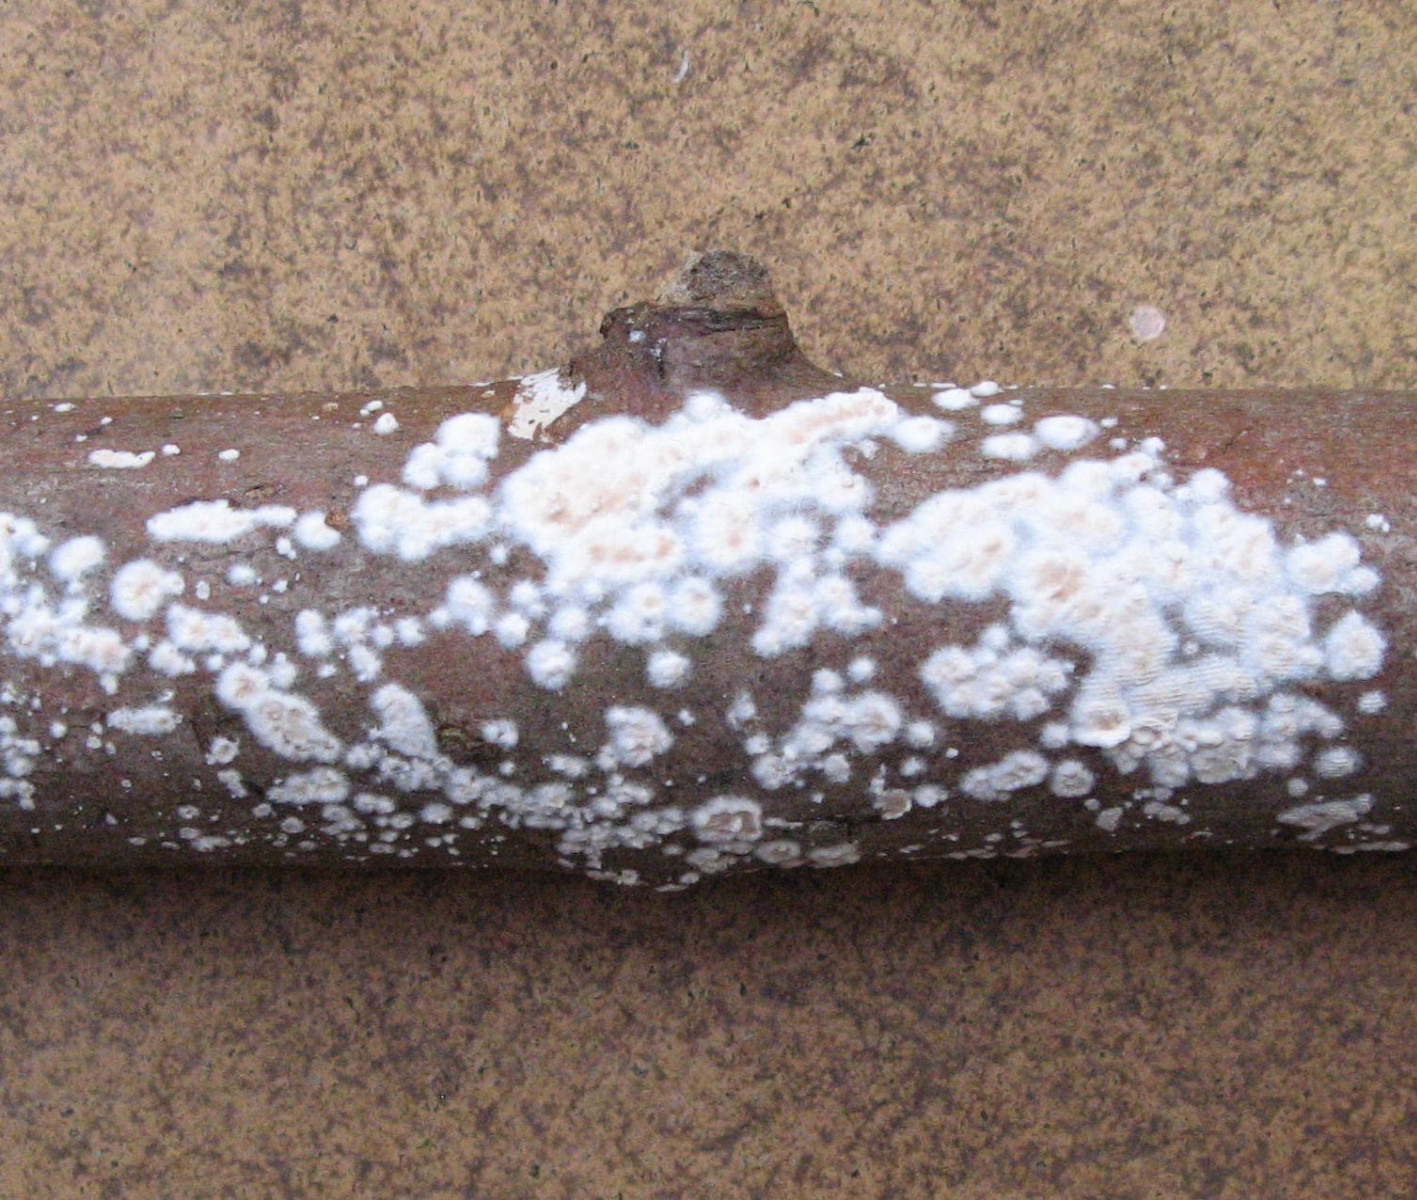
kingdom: Fungi
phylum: Basidiomycota
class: Agaricomycetes
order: Agaricales
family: Physalacriaceae
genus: Cylindrobasidium
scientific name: Cylindrobasidium evolvens
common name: sprækkehinde
